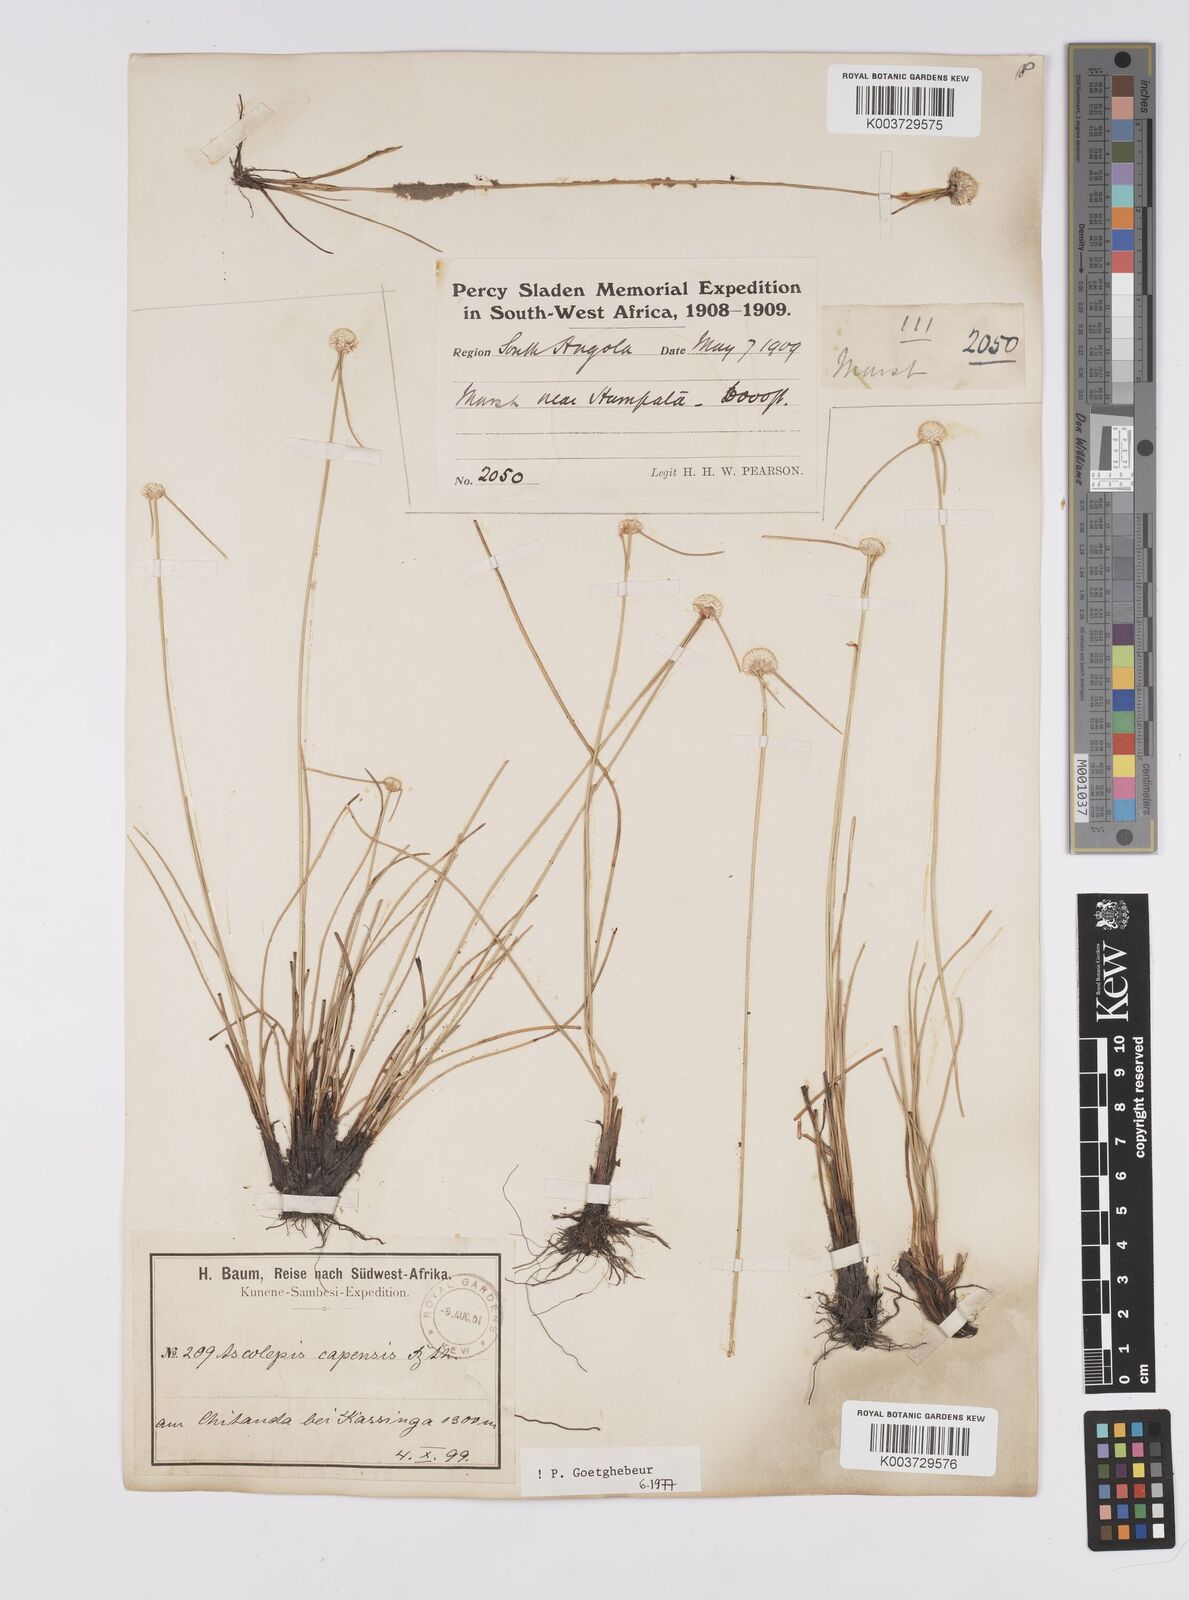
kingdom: Plantae
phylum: Tracheophyta
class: Liliopsida
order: Poales
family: Cyperaceae
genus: Cyperus
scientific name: Cyperus
